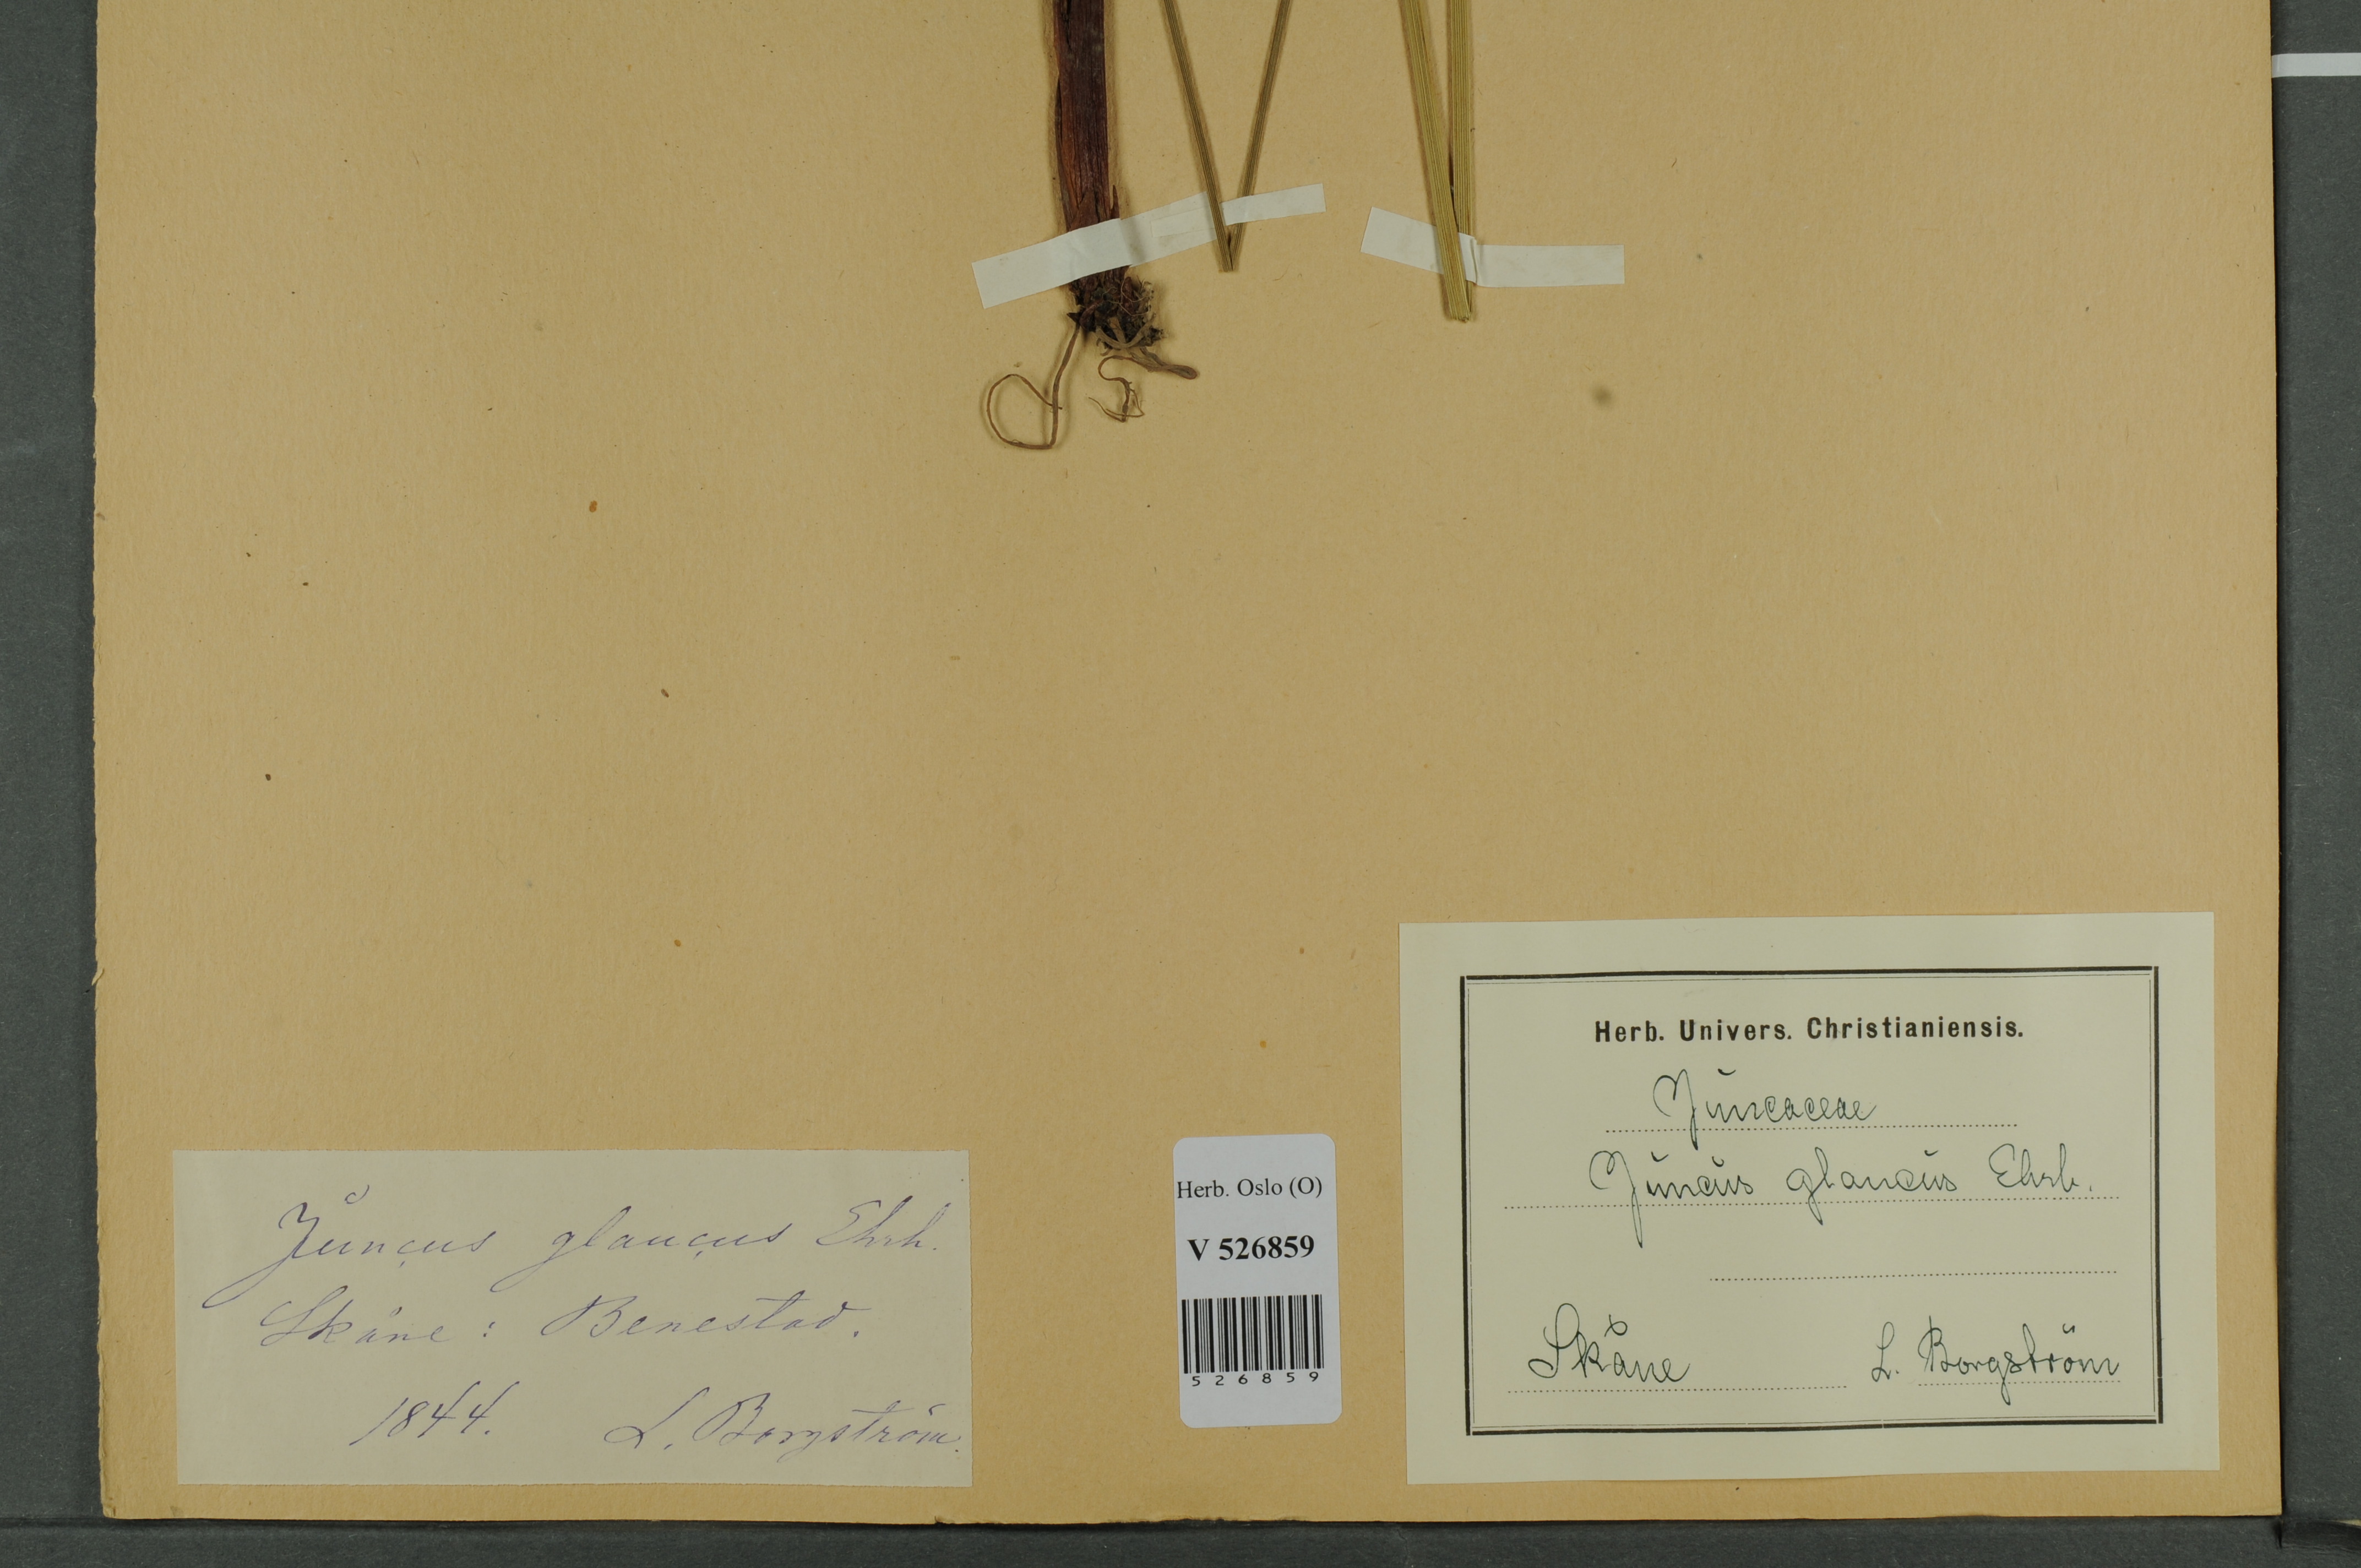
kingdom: Plantae
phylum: Tracheophyta
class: Liliopsida
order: Poales
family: Juncaceae
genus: Juncus
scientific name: Juncus inflexus
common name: Hard rush
